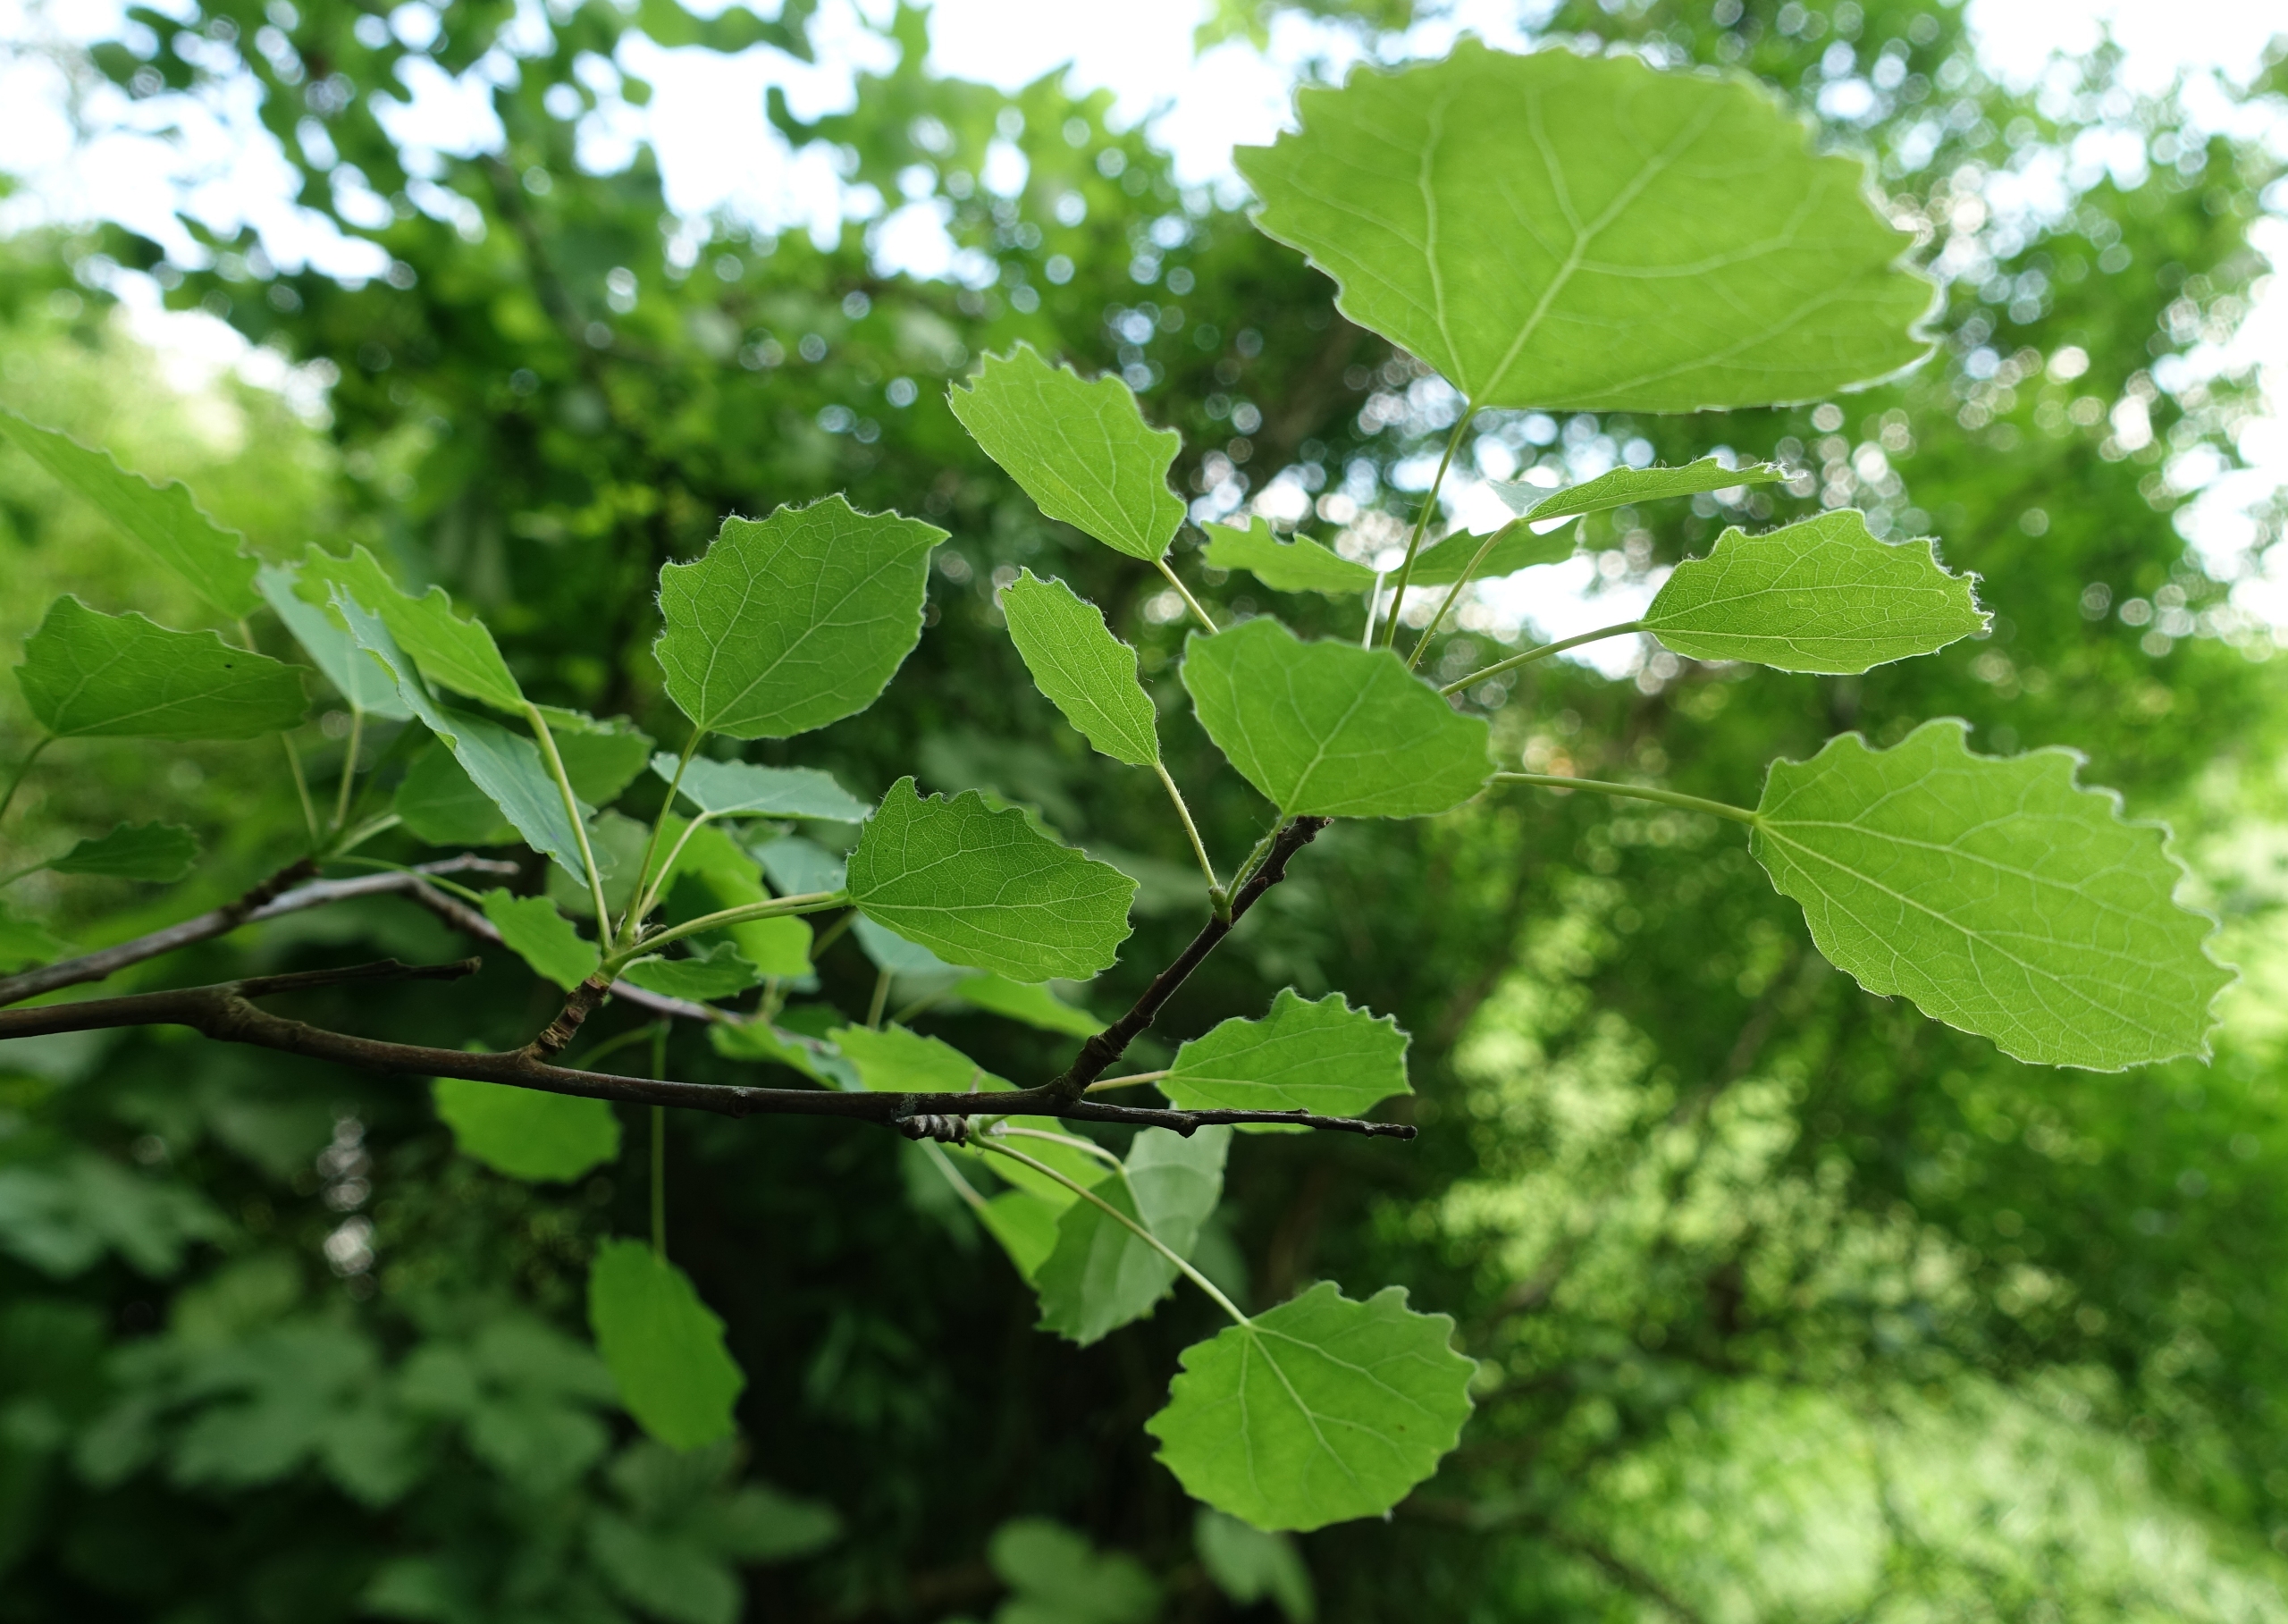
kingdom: Plantae
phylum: Tracheophyta
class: Magnoliopsida
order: Malpighiales
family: Salicaceae
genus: Populus
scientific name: Populus tremula
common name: Bævreasp
